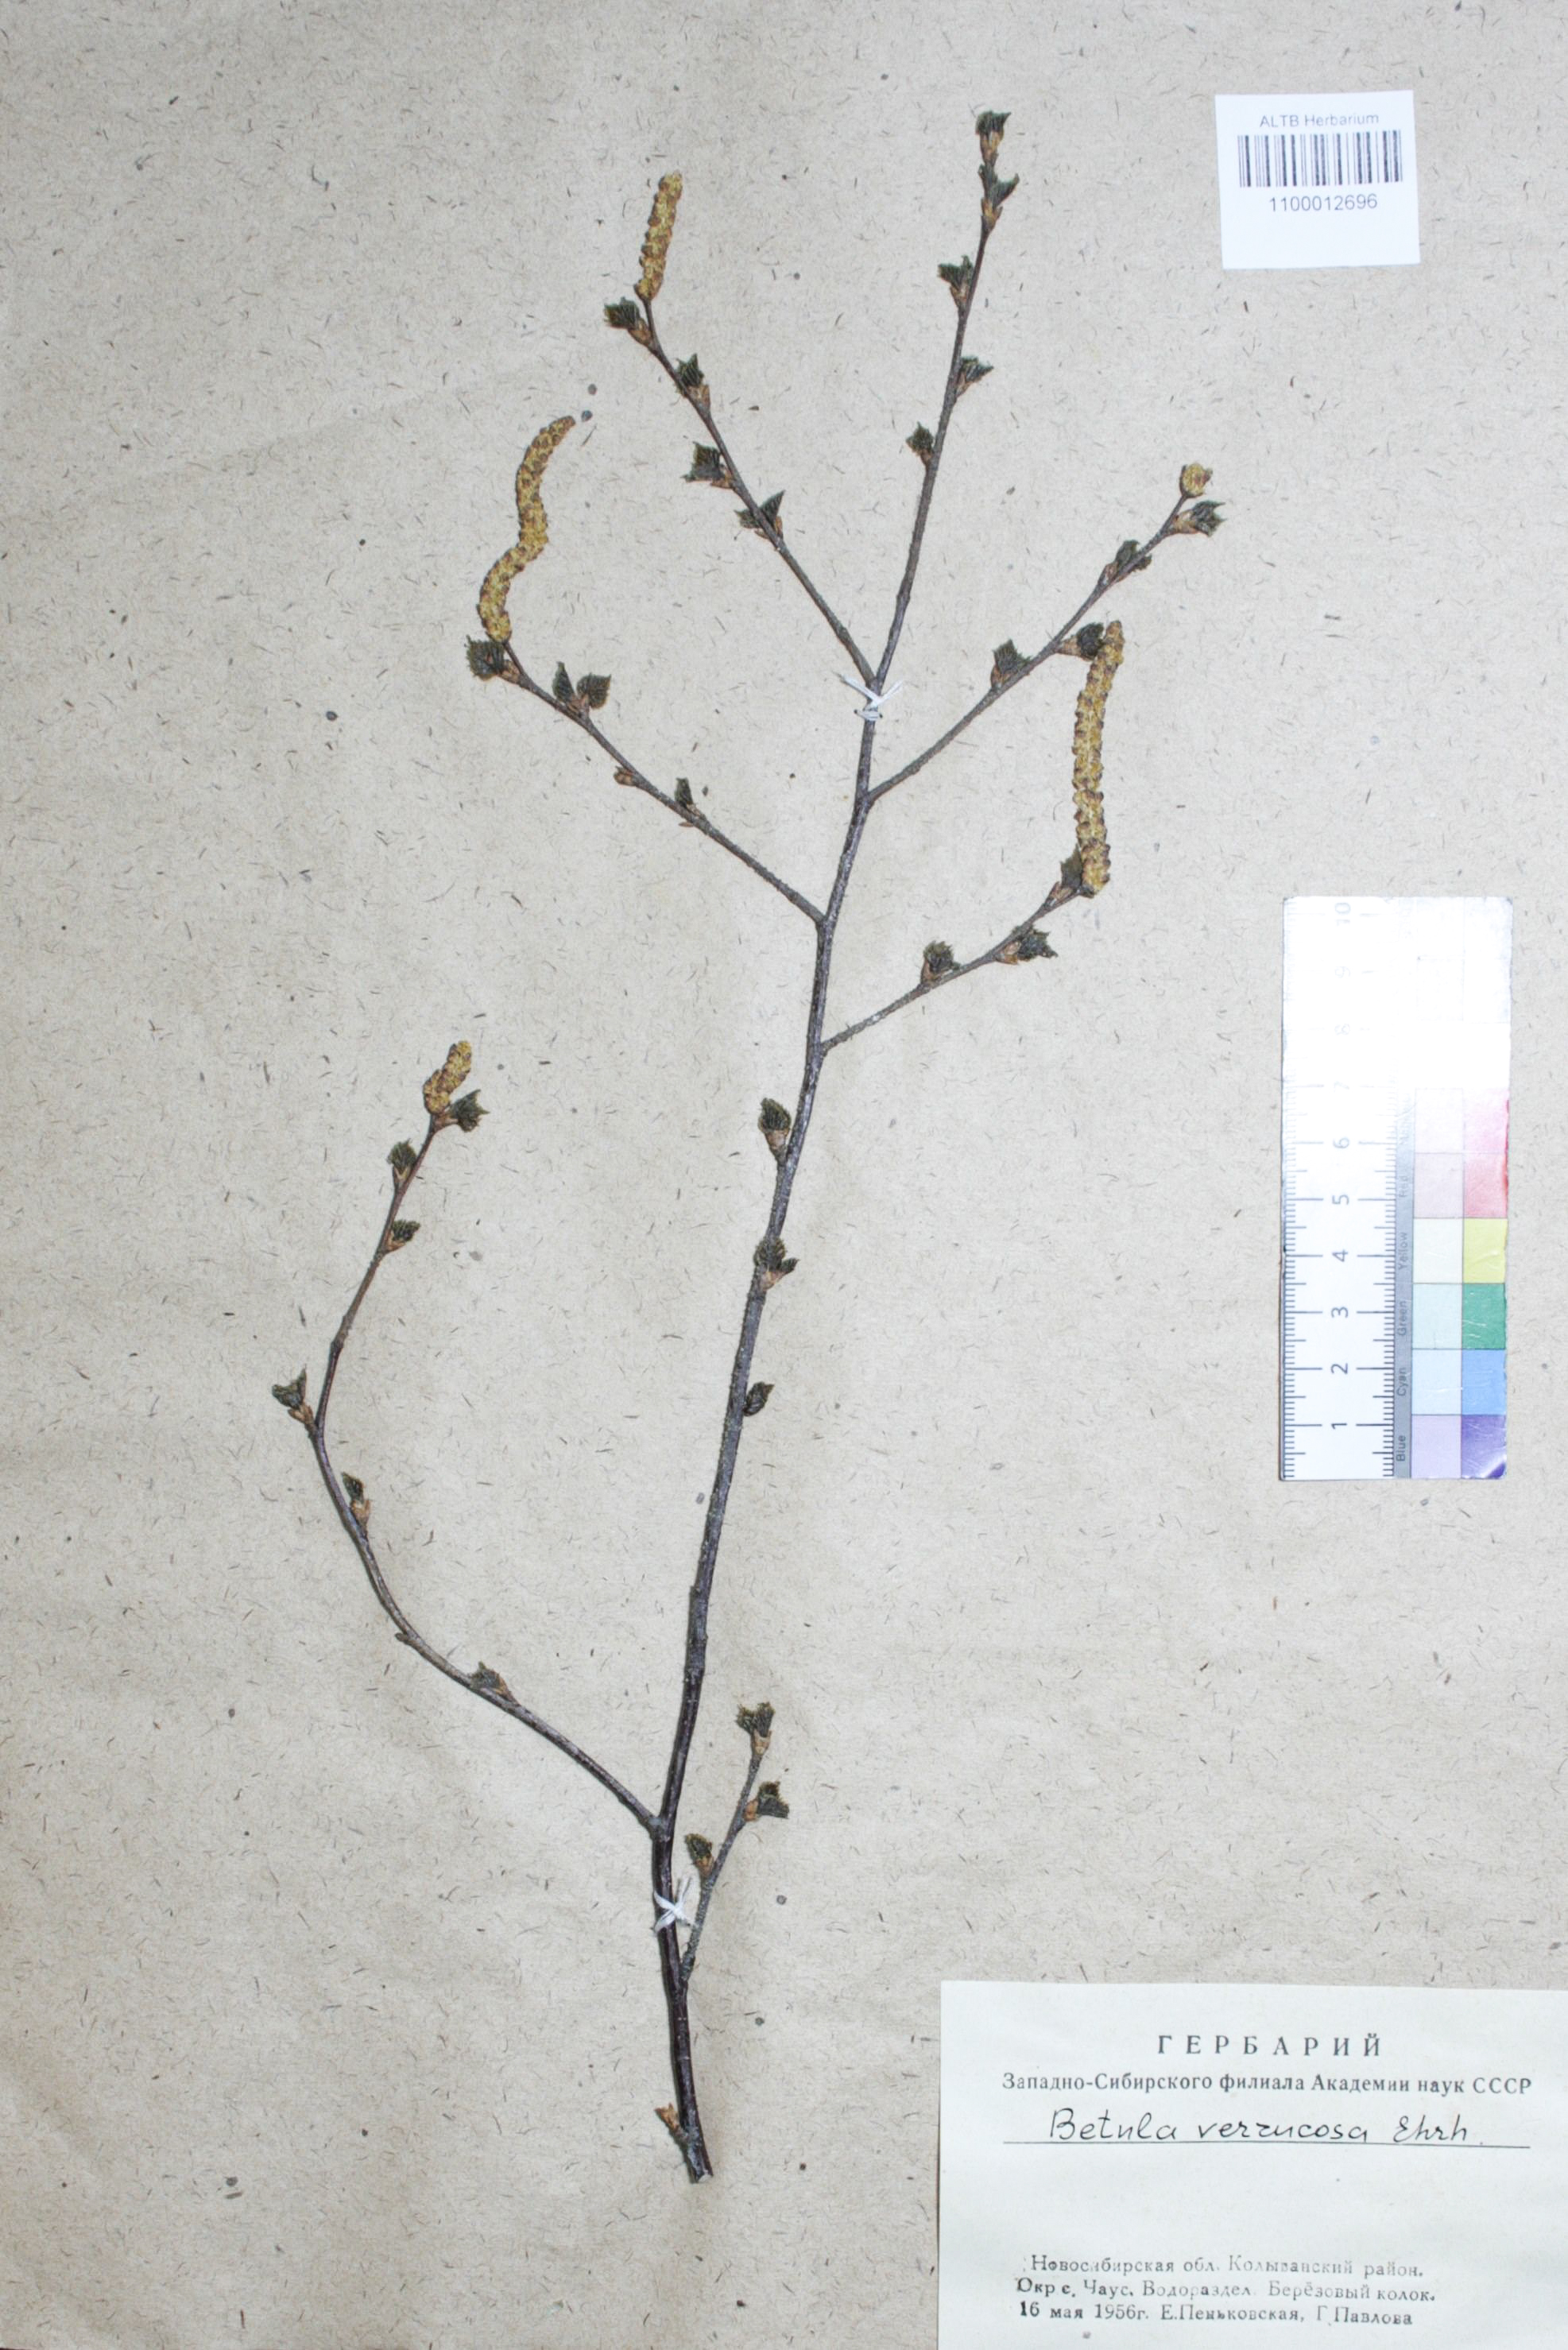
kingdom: Plantae
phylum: Tracheophyta
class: Magnoliopsida
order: Fagales
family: Betulaceae
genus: Betula
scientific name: Betula pendula
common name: Silver birch
